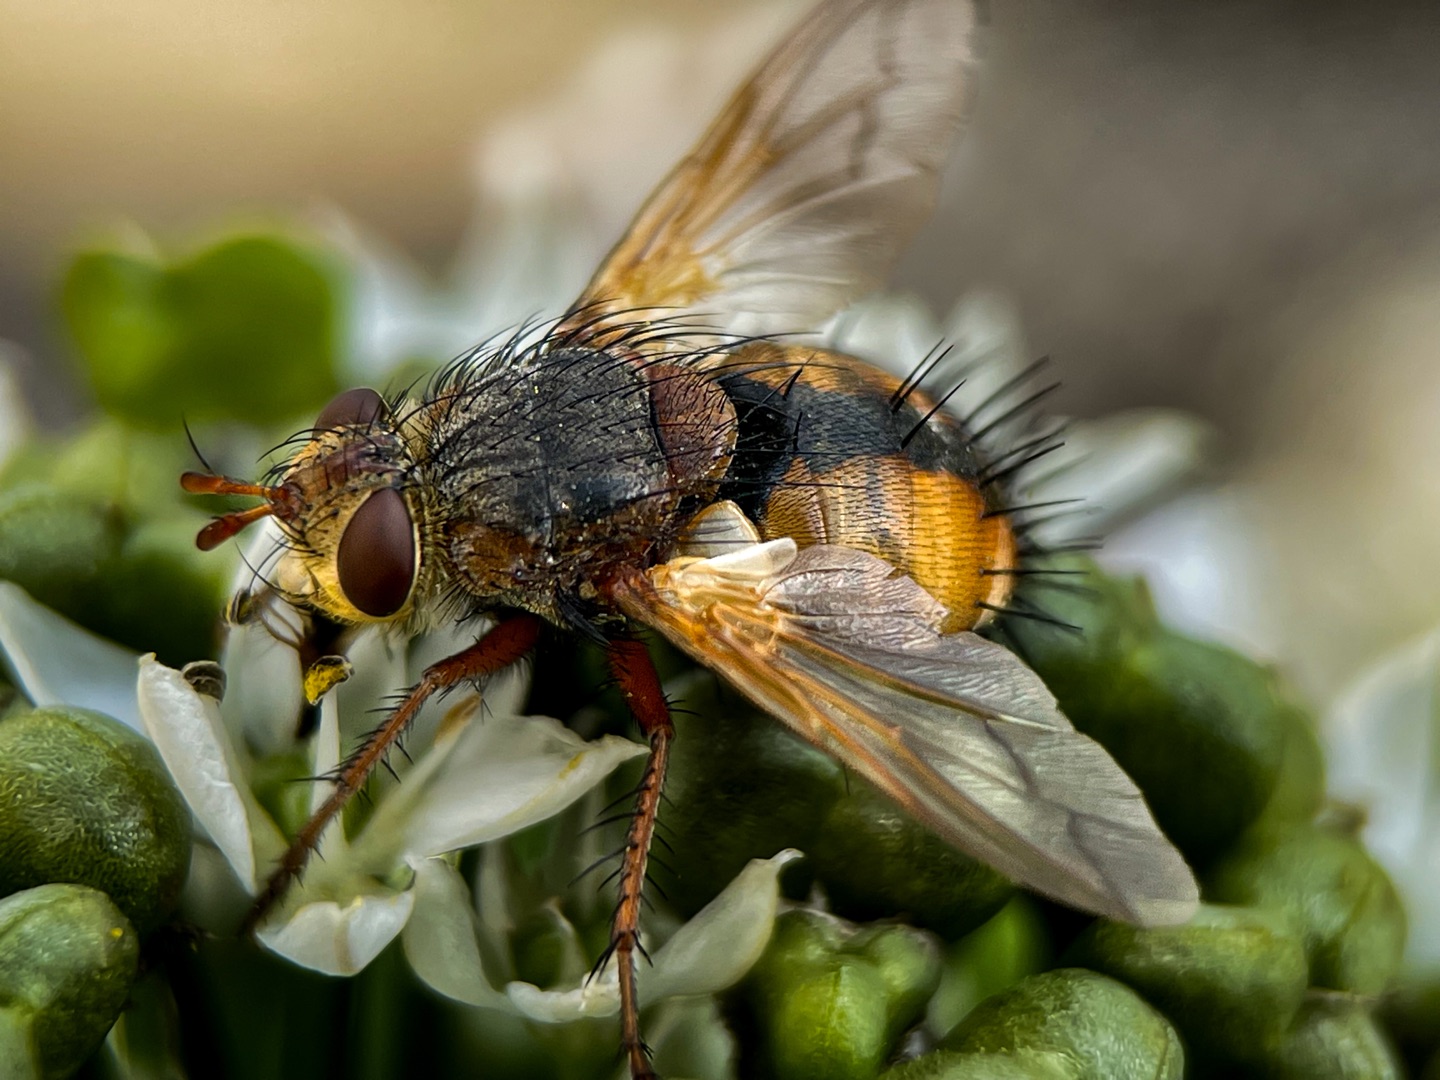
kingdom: Animalia
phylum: Arthropoda
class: Insecta
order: Diptera
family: Tachinidae
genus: Tachina
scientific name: Tachina fera
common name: Mellemfluen oskar
